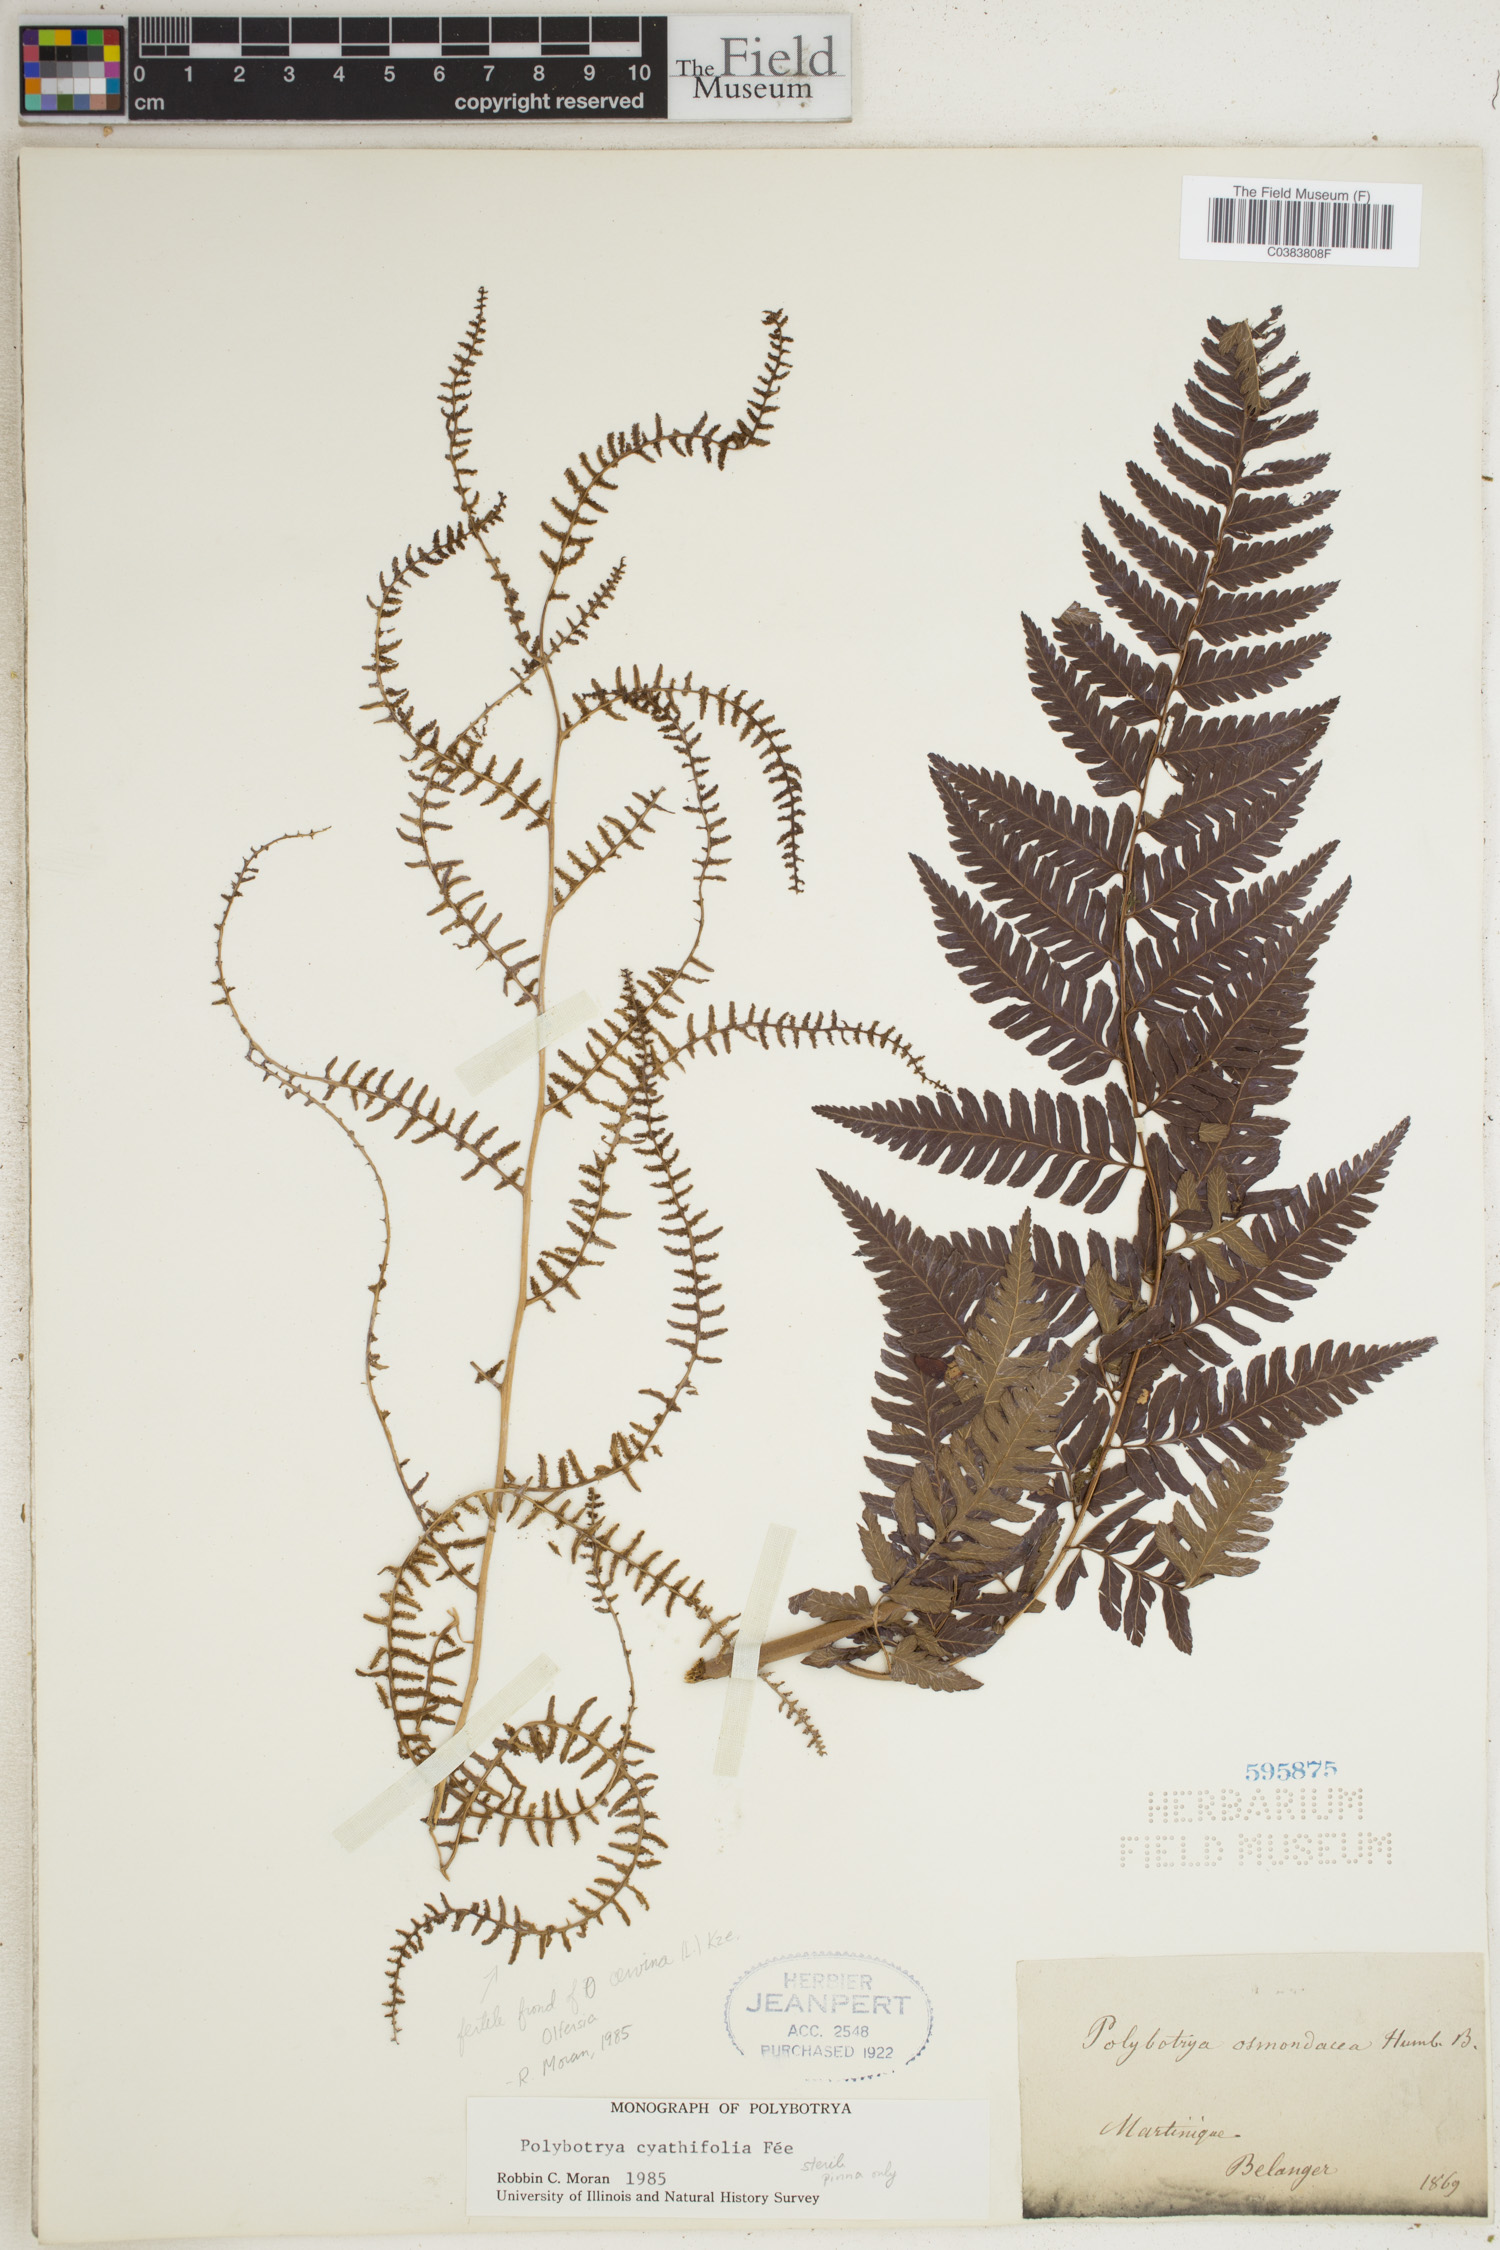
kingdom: Plantae
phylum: Tracheophyta
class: Polypodiopsida
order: Polypodiales
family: Dryopteridaceae
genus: Polybotrya
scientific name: Polybotrya osmundacea
